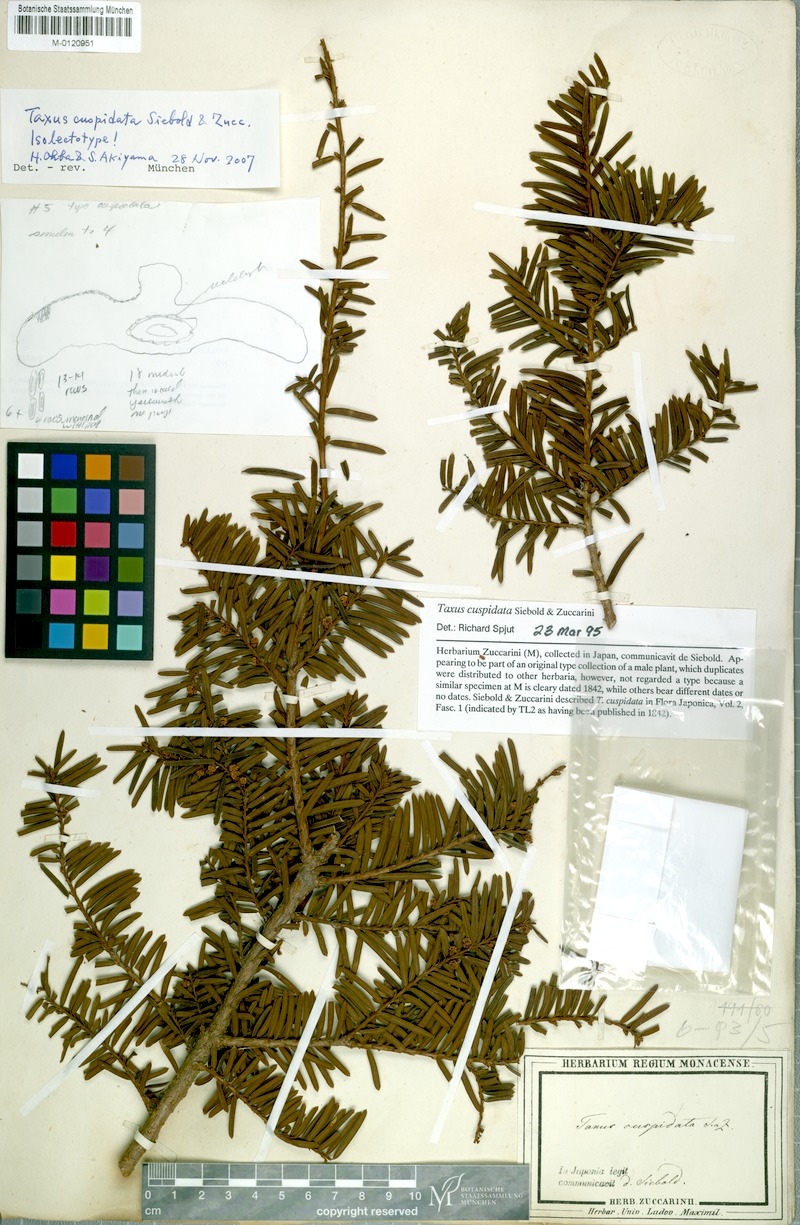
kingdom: Plantae
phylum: Tracheophyta
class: Pinopsida
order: Pinales
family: Taxaceae
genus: Taxus
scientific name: Taxus cuspidata
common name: Japanese yew
